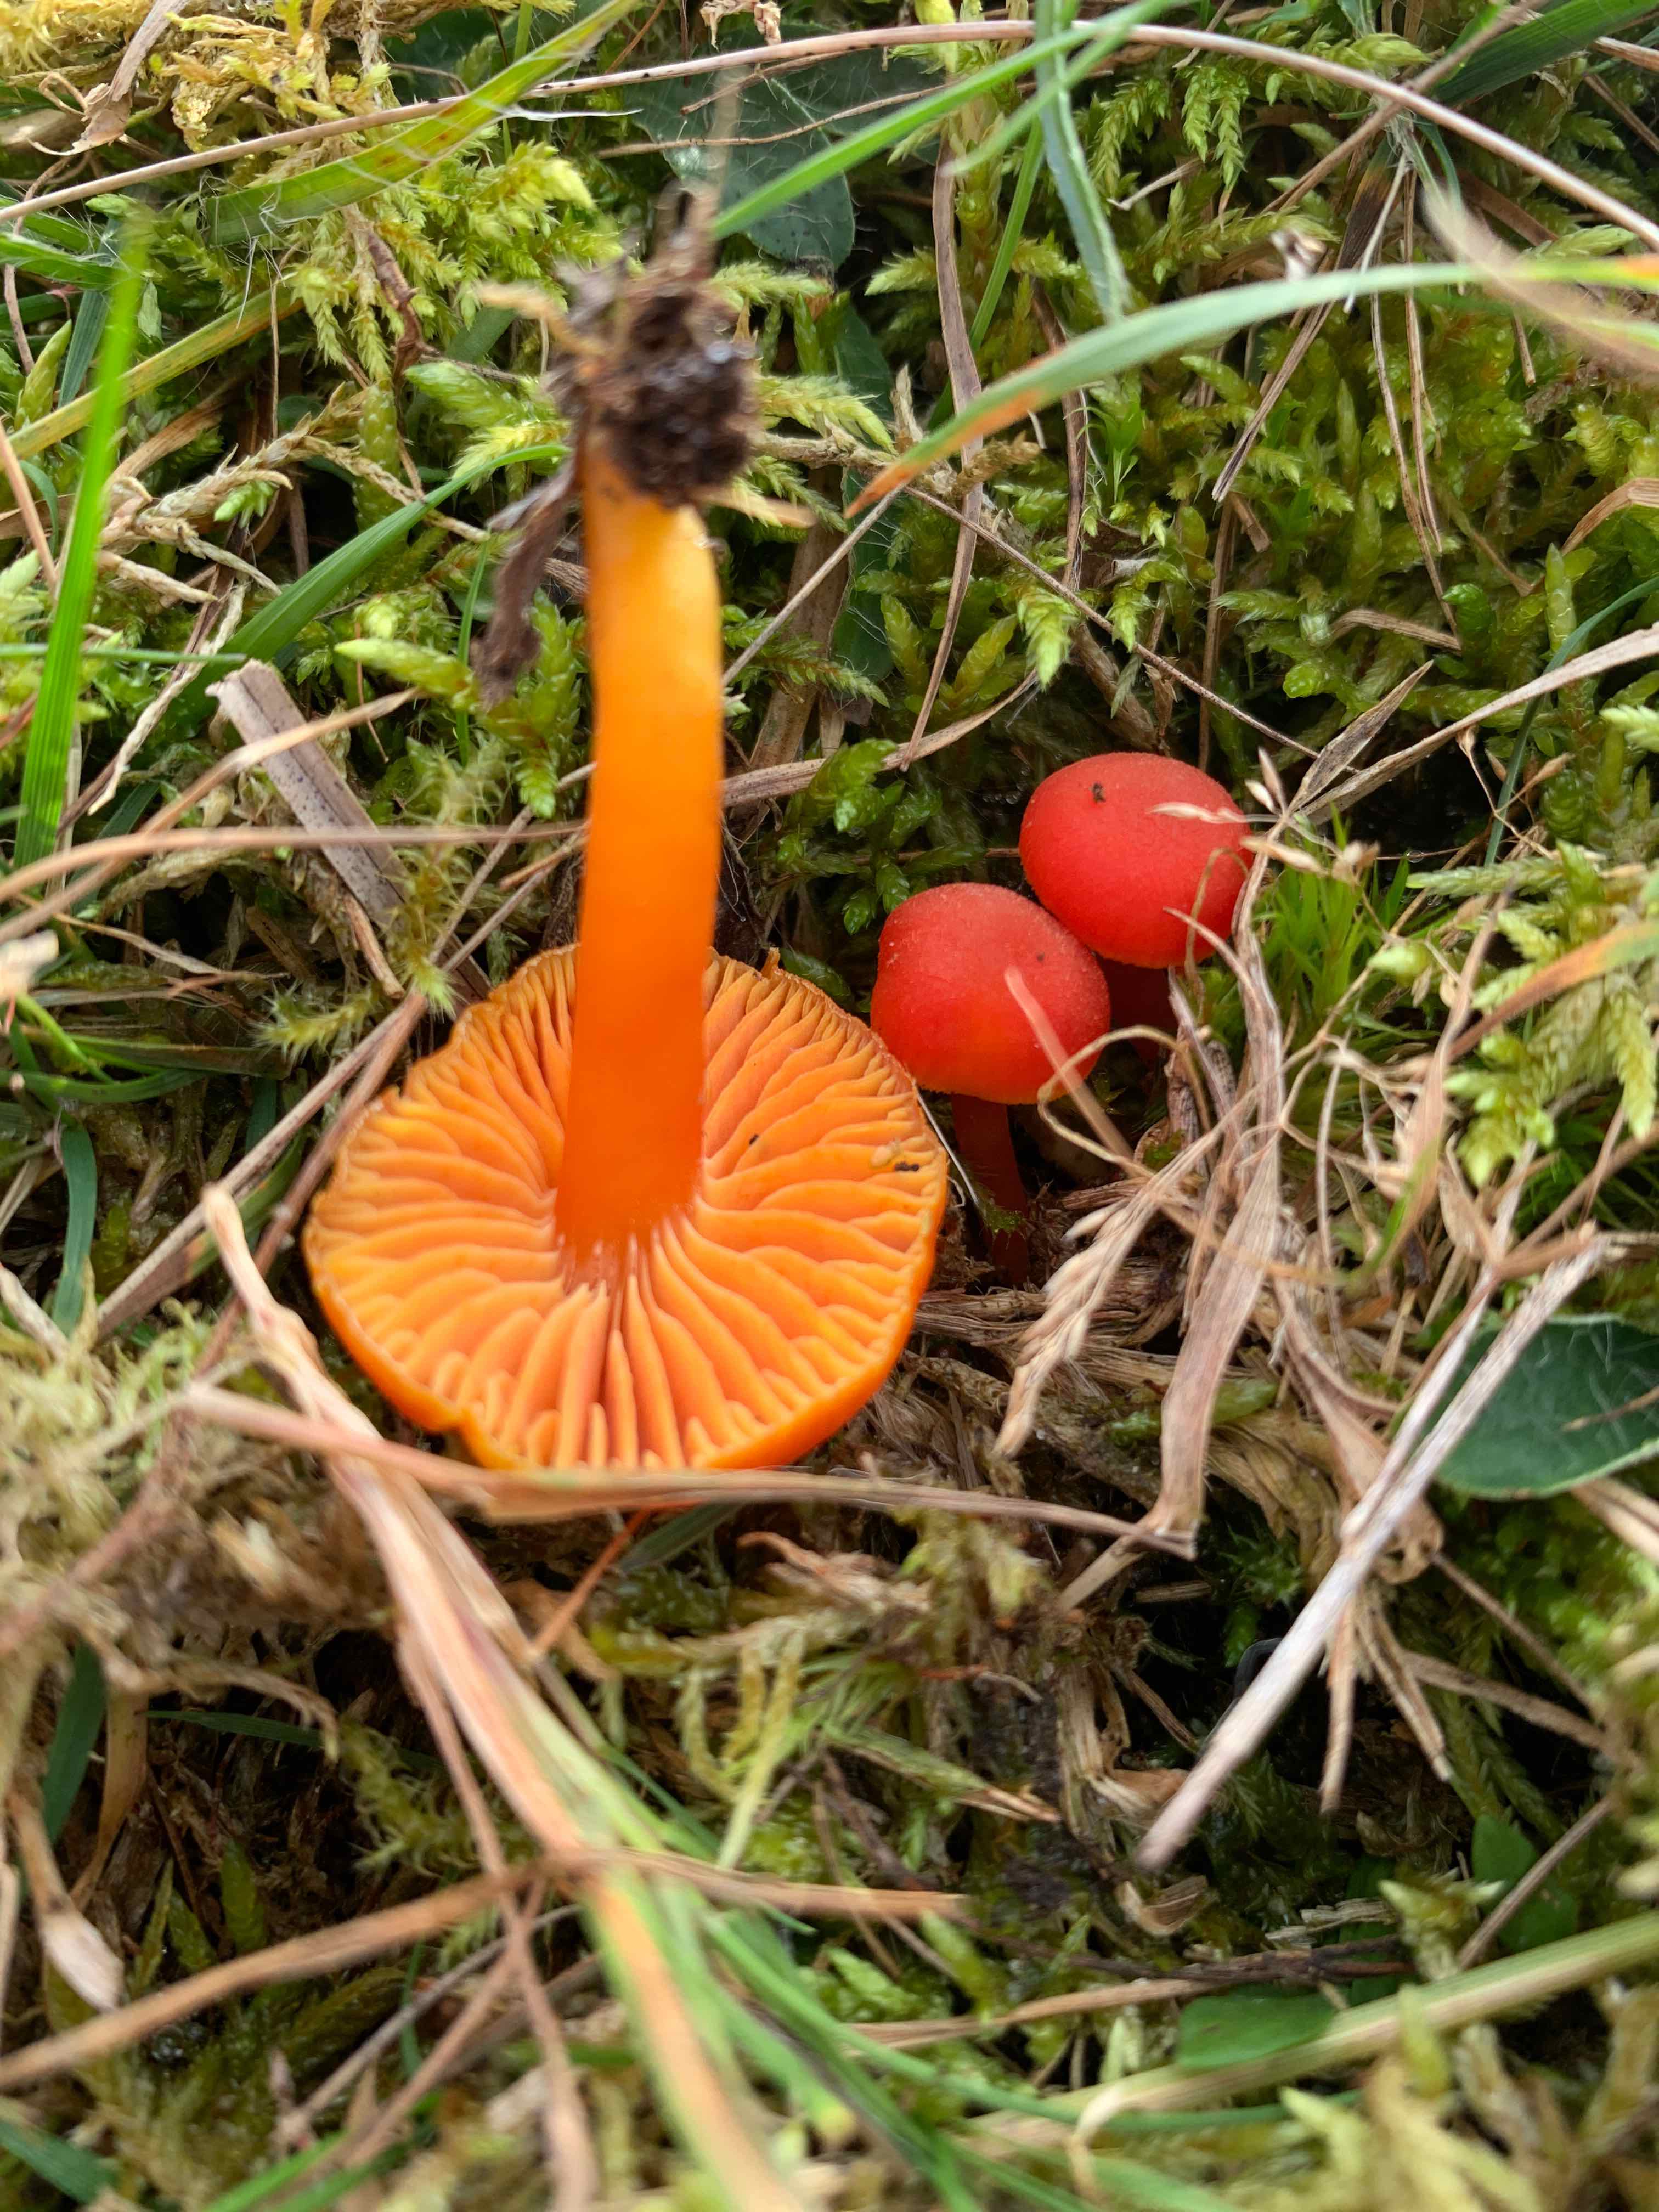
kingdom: Fungi
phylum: Basidiomycota
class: Agaricomycetes
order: Agaricales
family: Hygrophoraceae
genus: Hygrocybe
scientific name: Hygrocybe miniata
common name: mønje-vokshat
